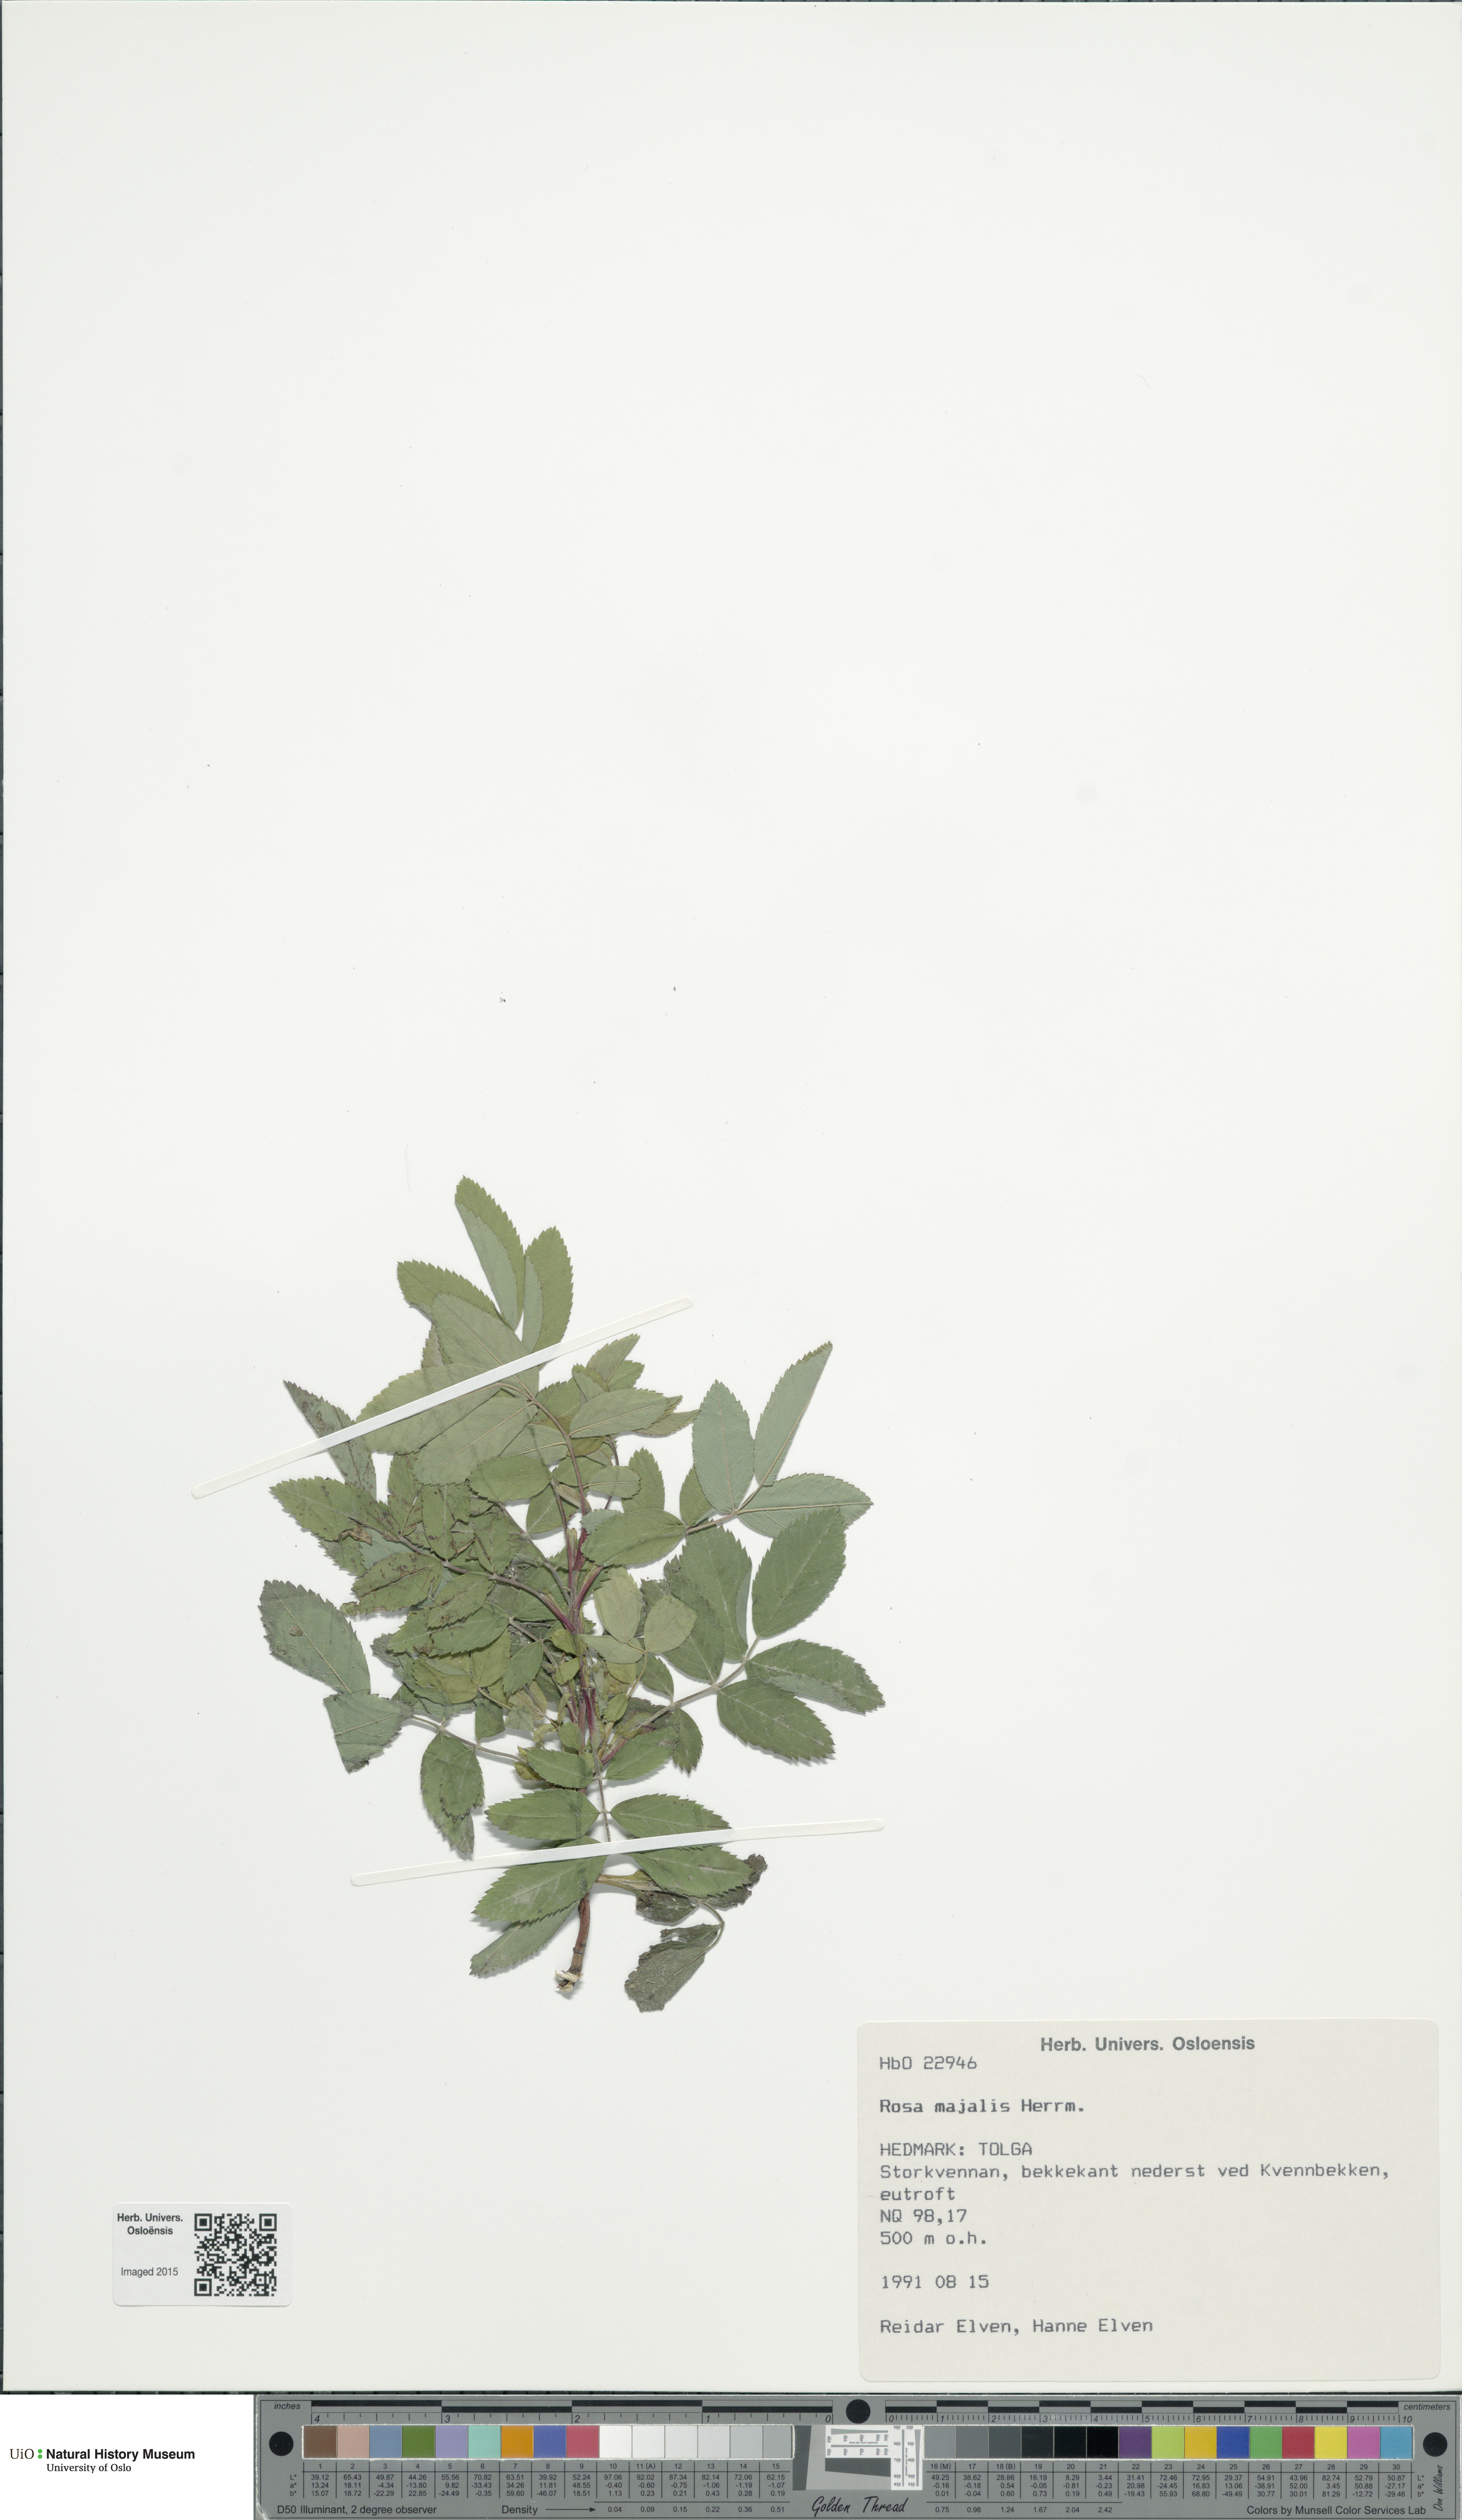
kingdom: Plantae
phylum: Tracheophyta
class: Magnoliopsida
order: Rosales
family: Rosaceae
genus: Rosa
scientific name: Rosa majalis
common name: Cinnamon rose
